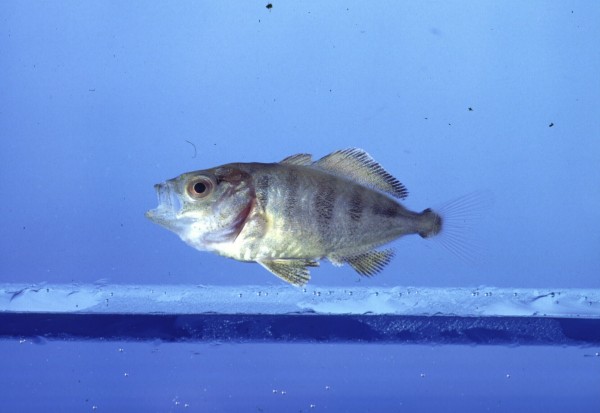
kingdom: Animalia
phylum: Chordata
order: Perciformes
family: Carangidae
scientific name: Carangidae
